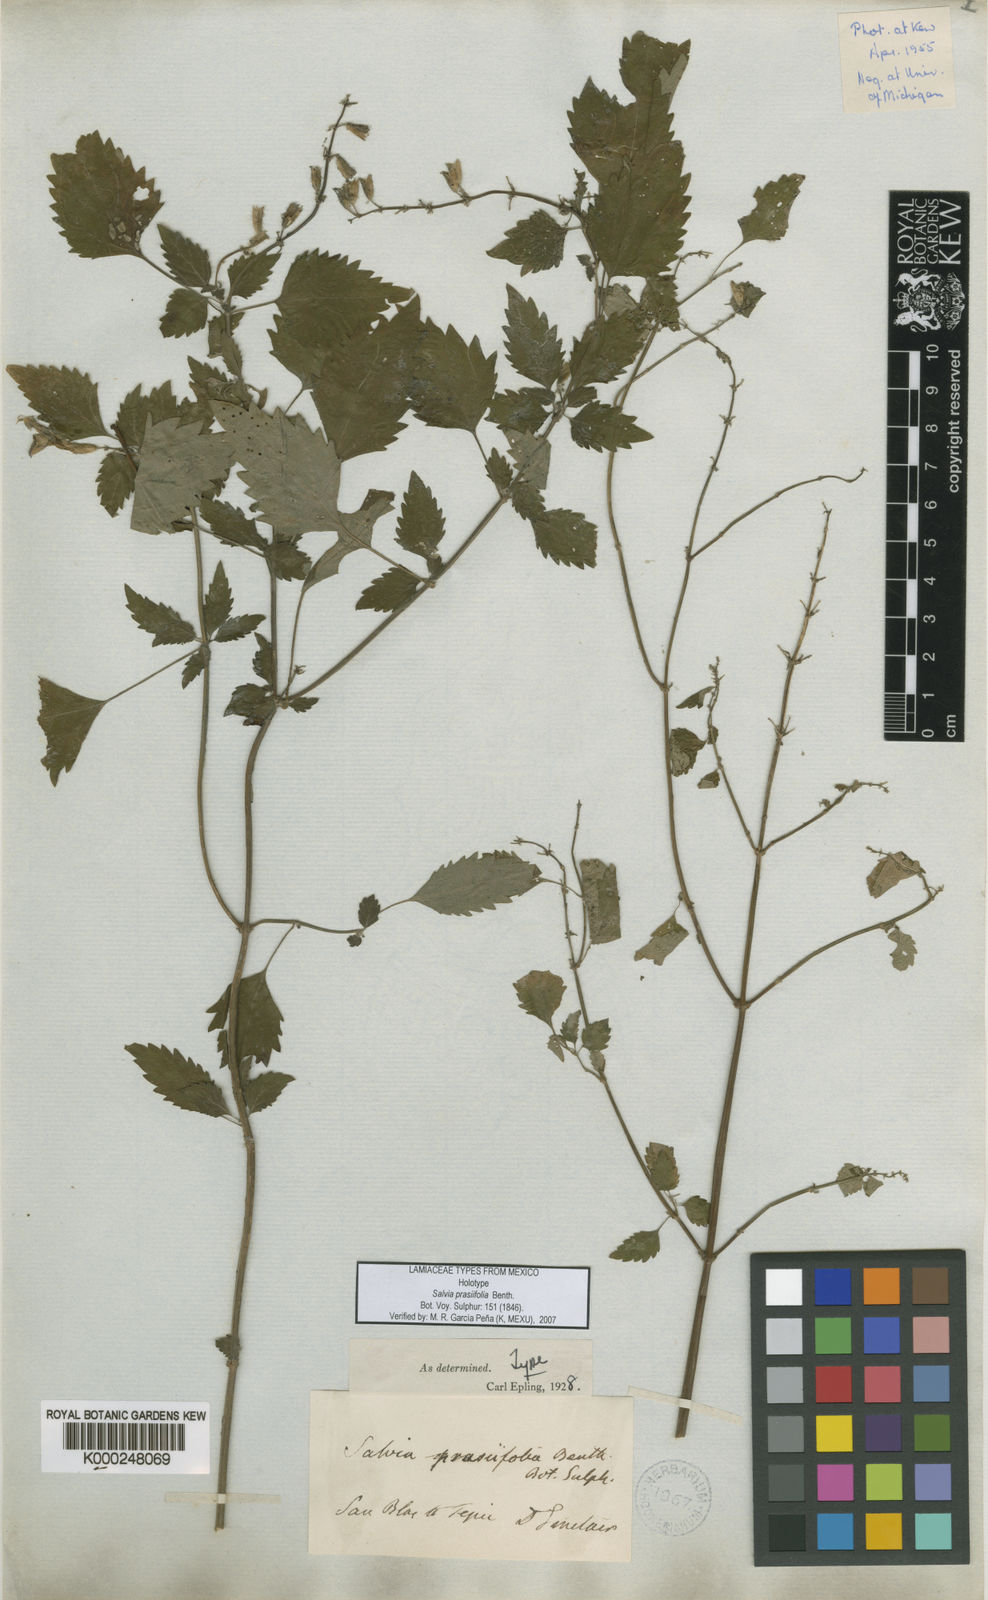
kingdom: Plantae
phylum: Tracheophyta
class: Magnoliopsida
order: Lamiales
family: Lamiaceae
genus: Salvia
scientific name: Salvia prasiifolia
